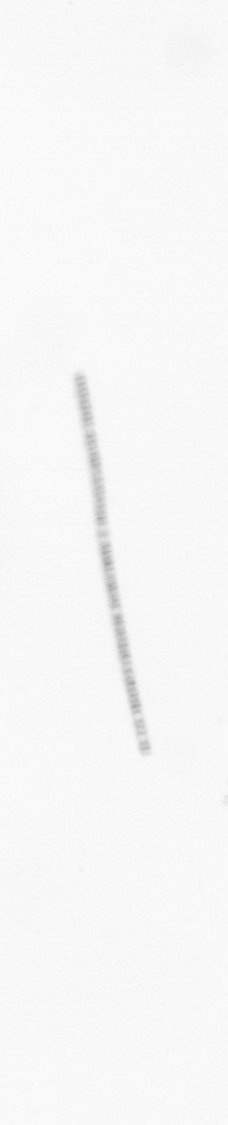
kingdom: Chromista
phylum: Ochrophyta
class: Bacillariophyceae
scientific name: Bacillariophyceae
